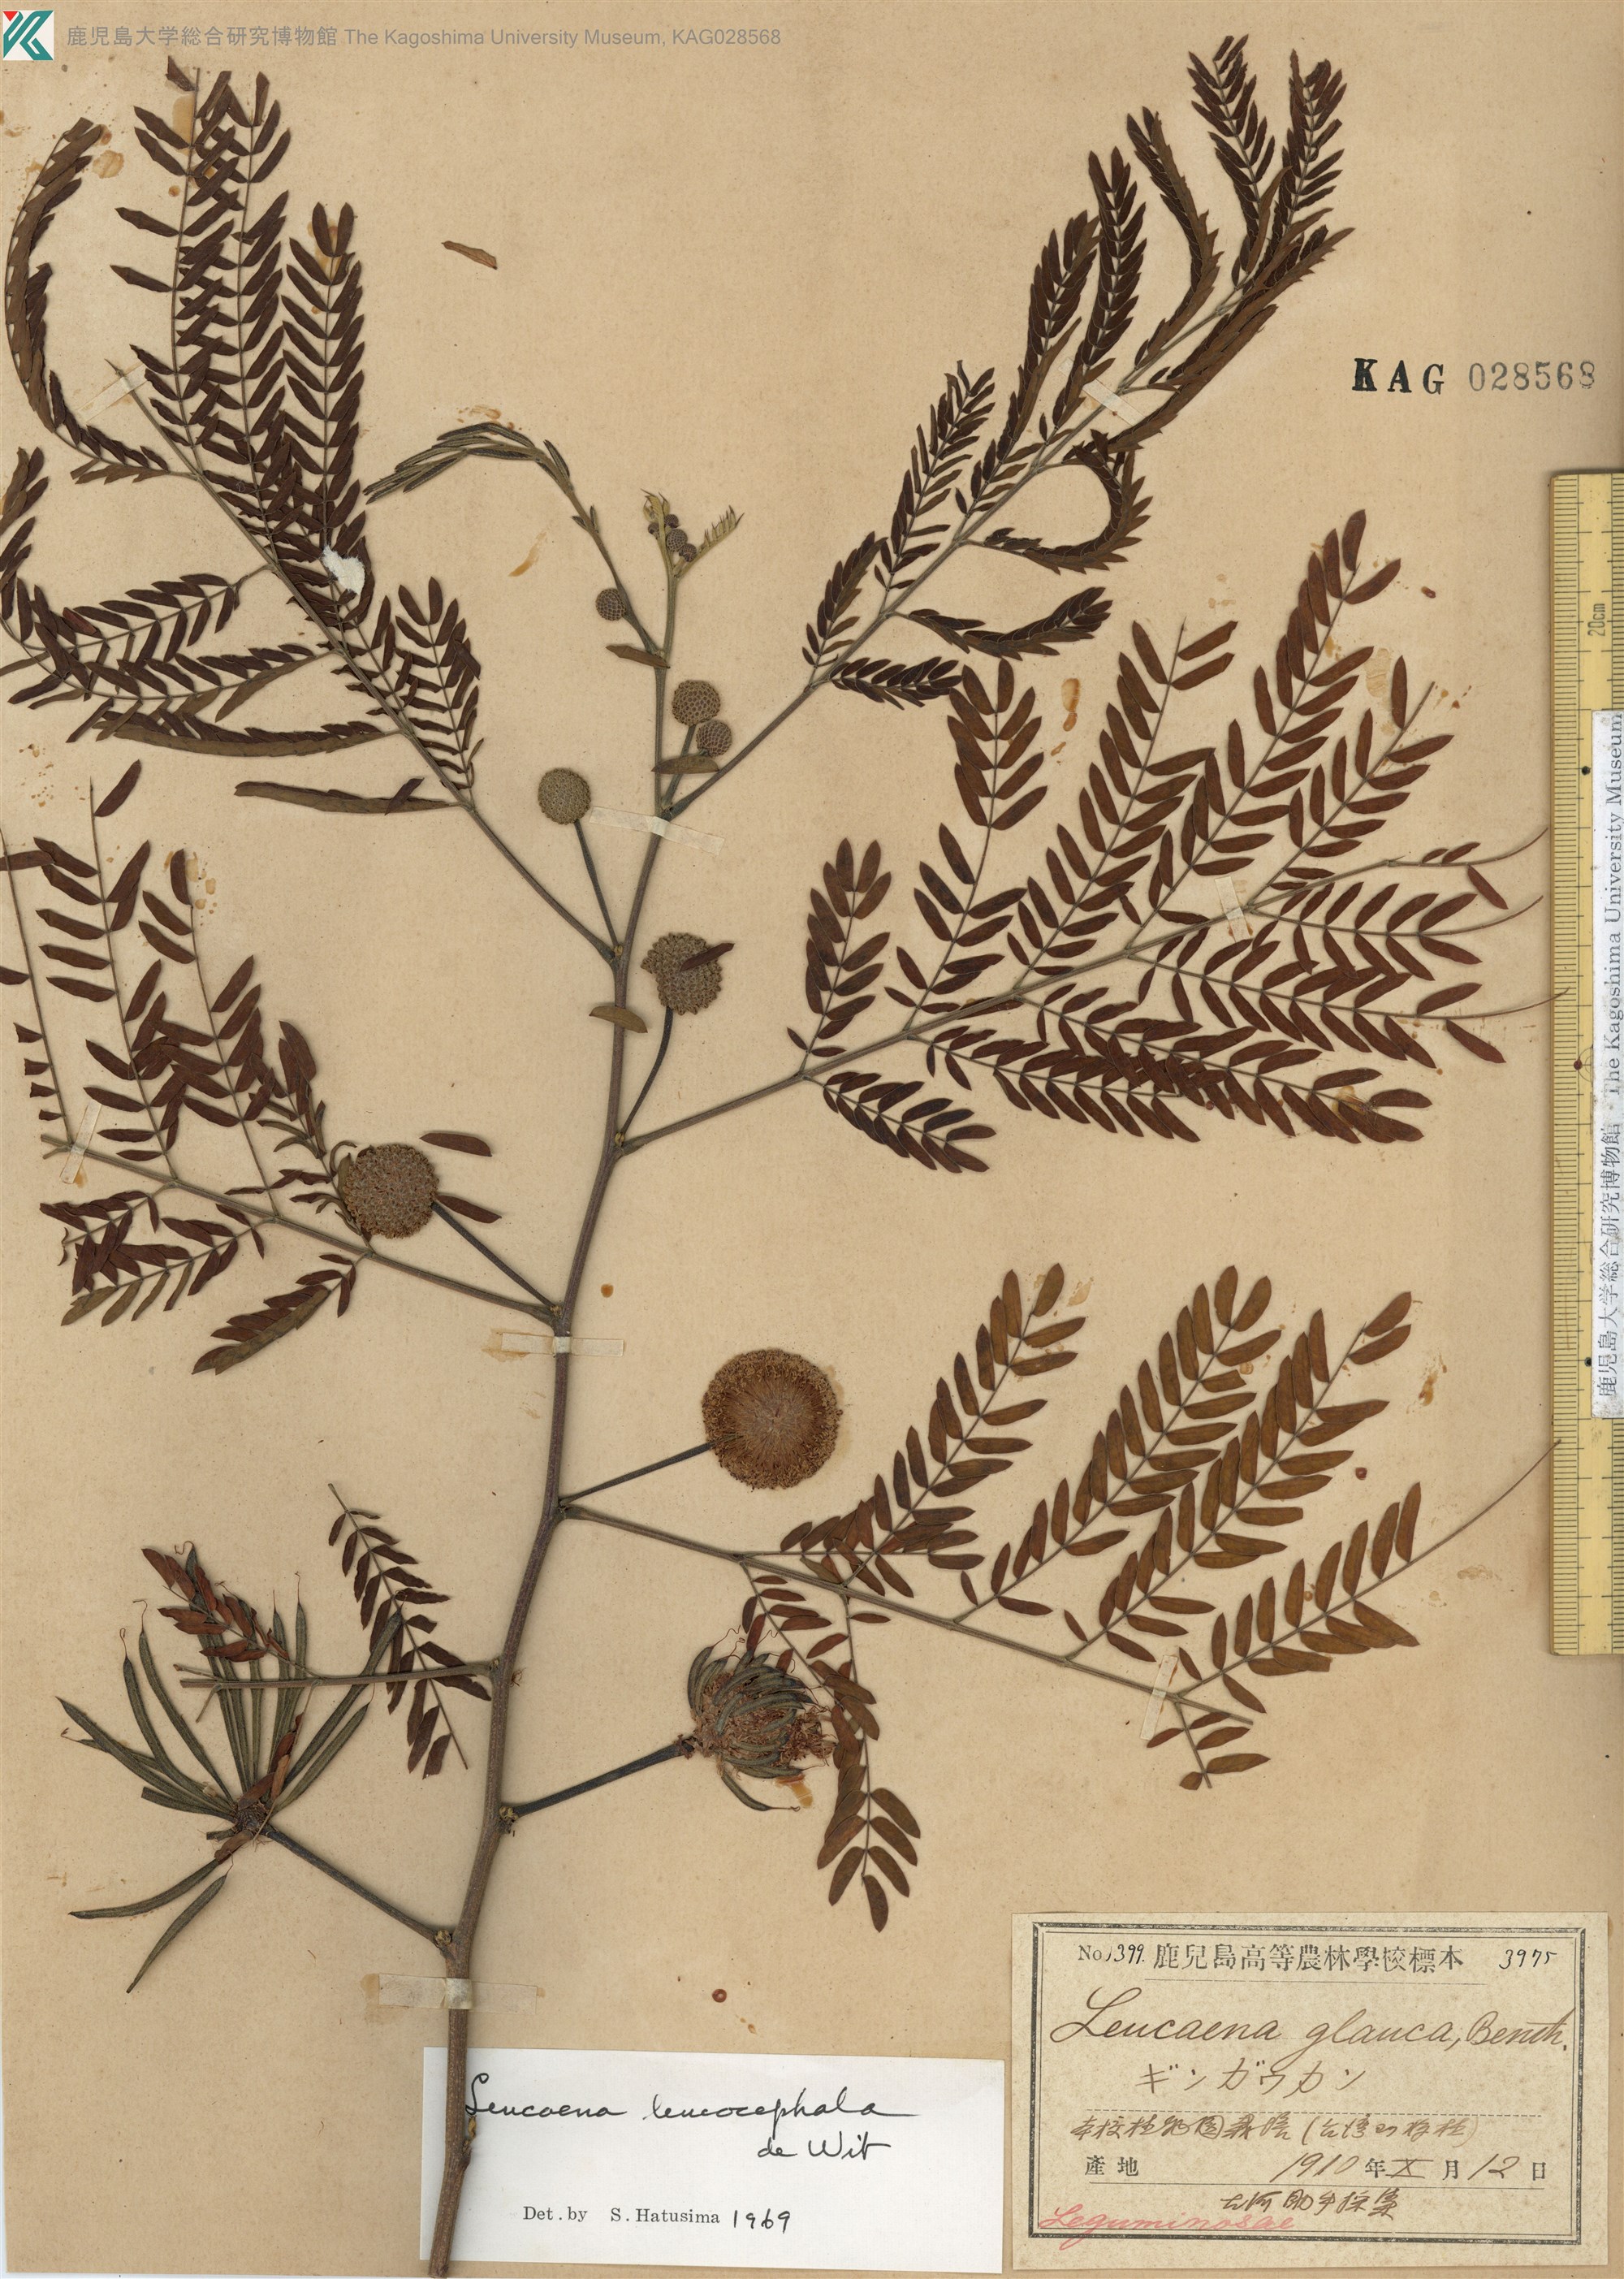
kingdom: Plantae
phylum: Tracheophyta
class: Magnoliopsida
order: Fabales
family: Fabaceae
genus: Leucaena
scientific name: Leucaena leucocephala
